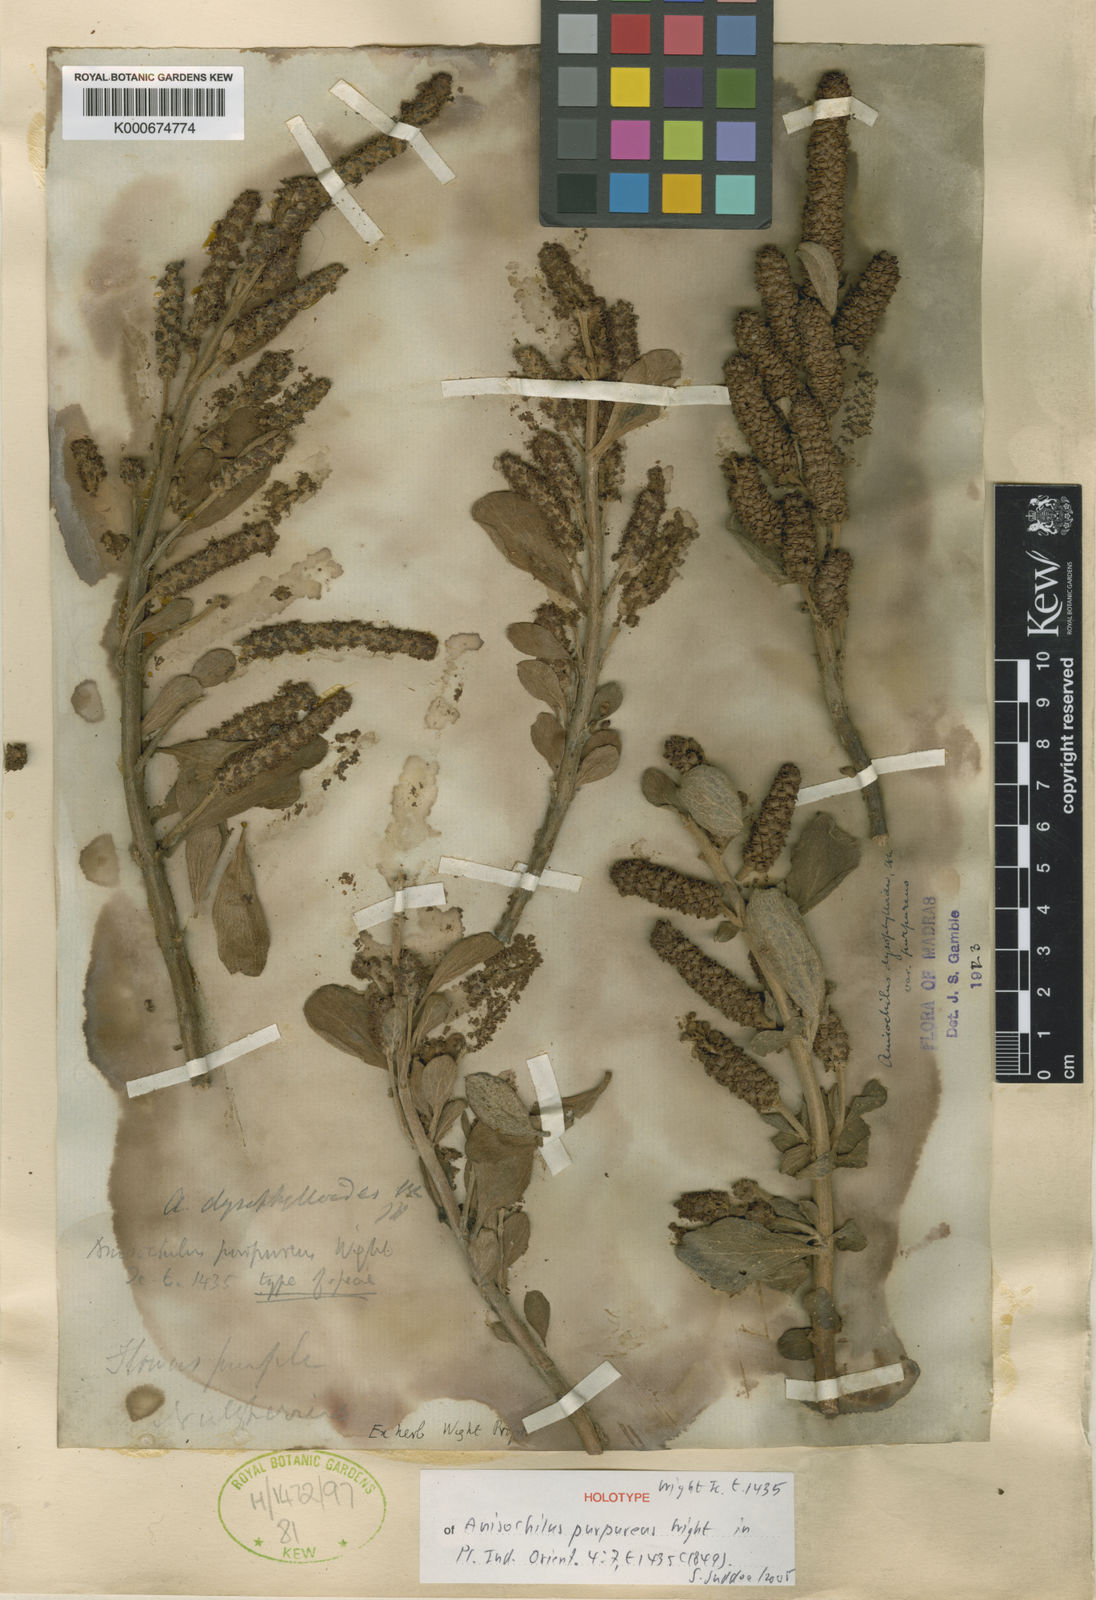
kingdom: Plantae
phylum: Tracheophyta
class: Magnoliopsida
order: Lamiales
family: Lamiaceae
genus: Coleus
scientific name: Coleus dysophylloides
